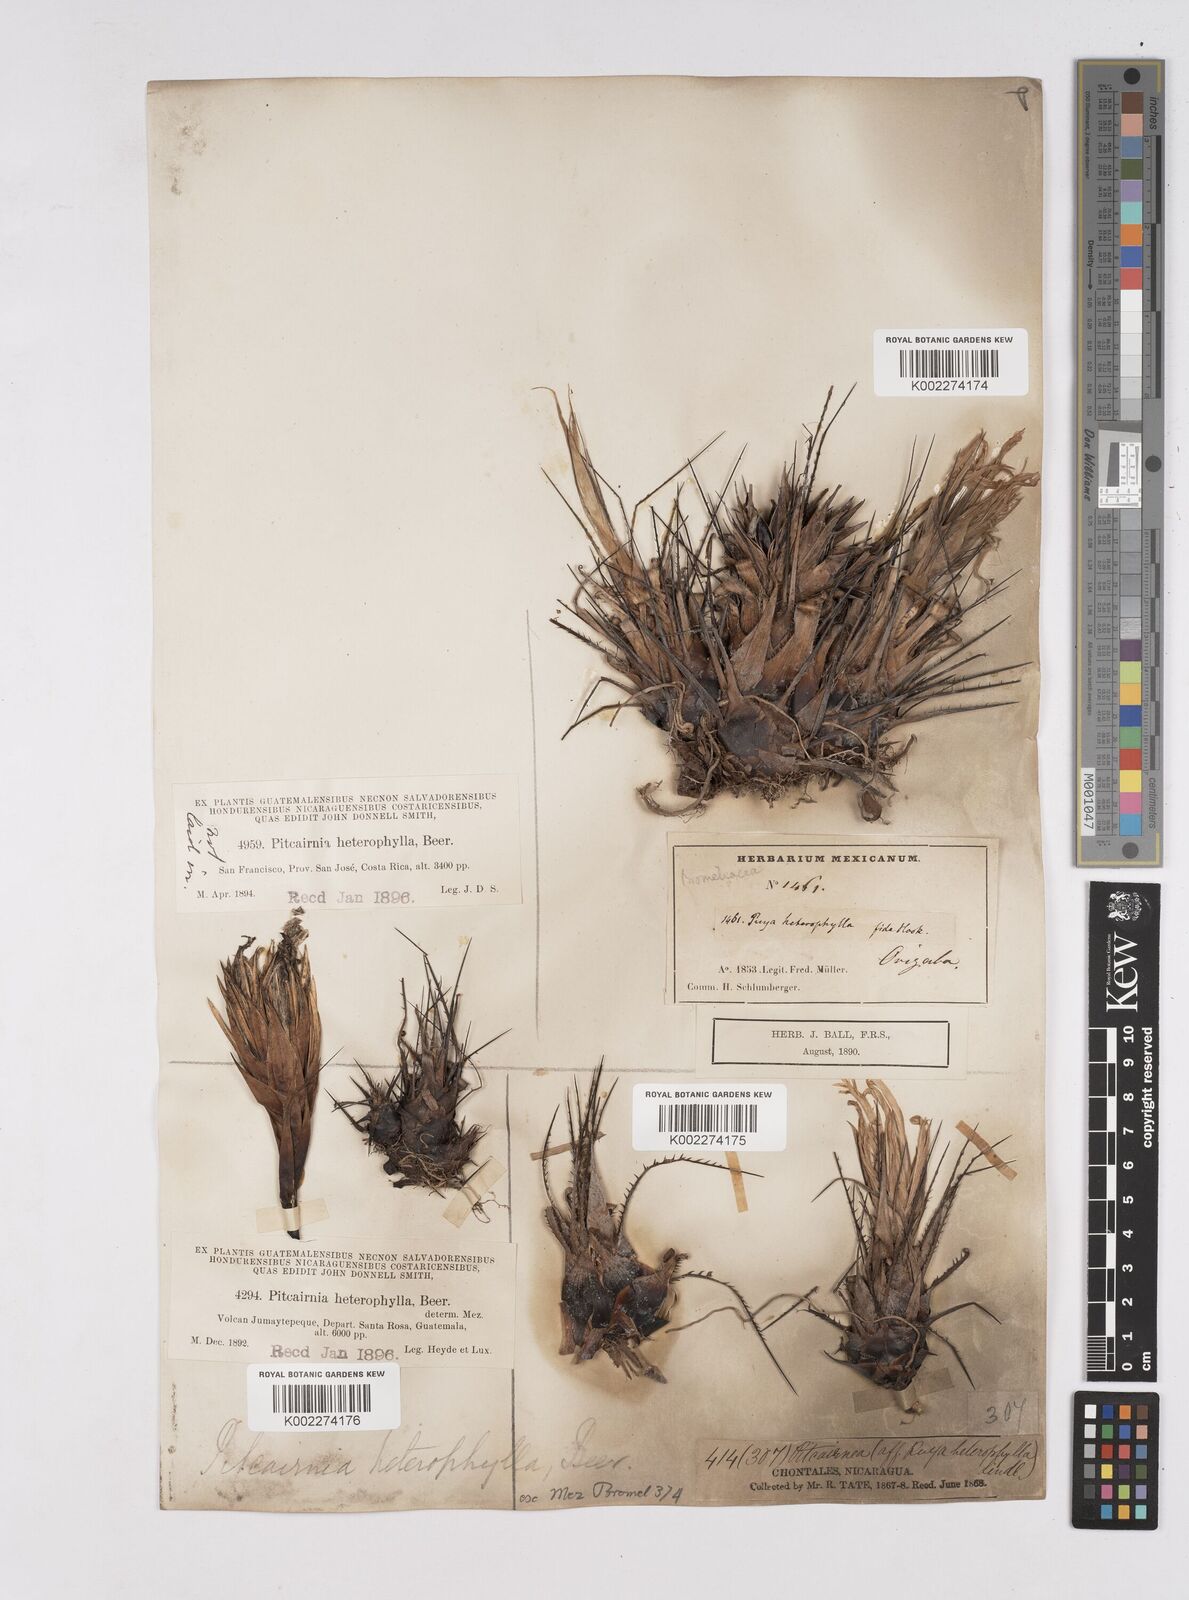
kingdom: Plantae
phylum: Tracheophyta
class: Liliopsida
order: Poales
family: Bromeliaceae
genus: Pitcairnia
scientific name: Pitcairnia heterophylla
